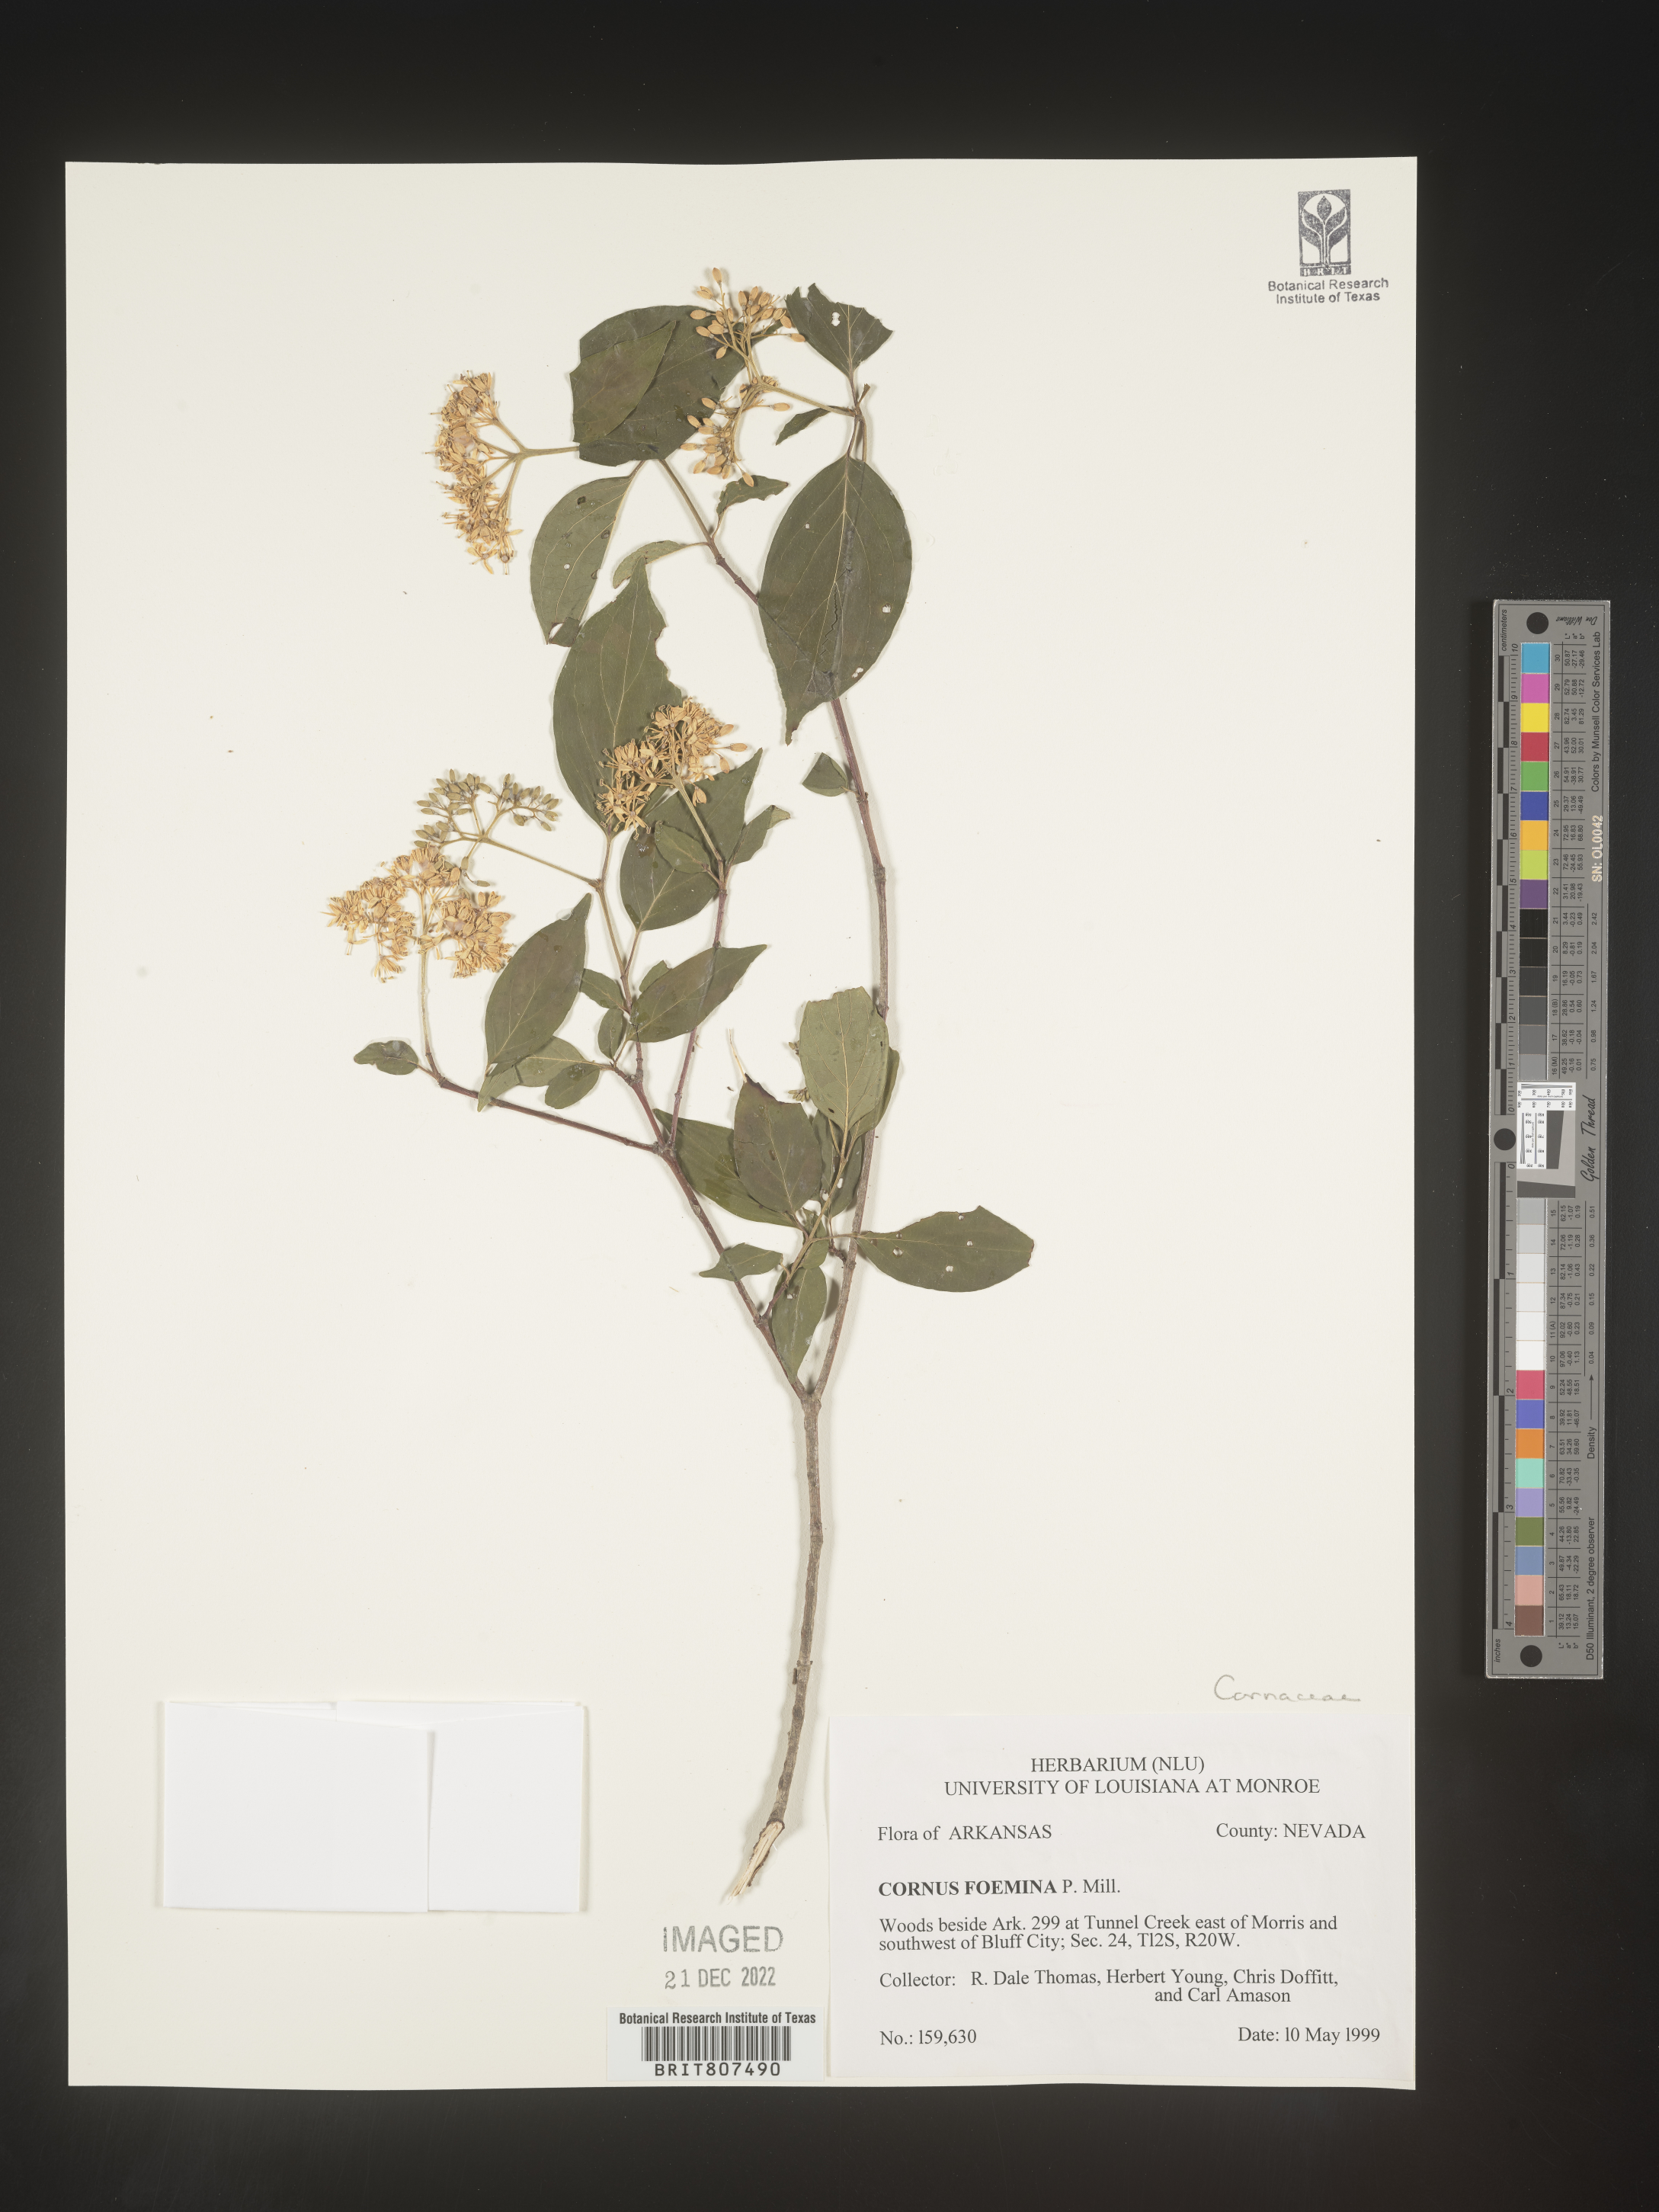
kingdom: Plantae
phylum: Tracheophyta
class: Magnoliopsida
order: Cornales
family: Cornaceae
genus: Cornus
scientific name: Cornus foemina
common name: Swamp dogwood
